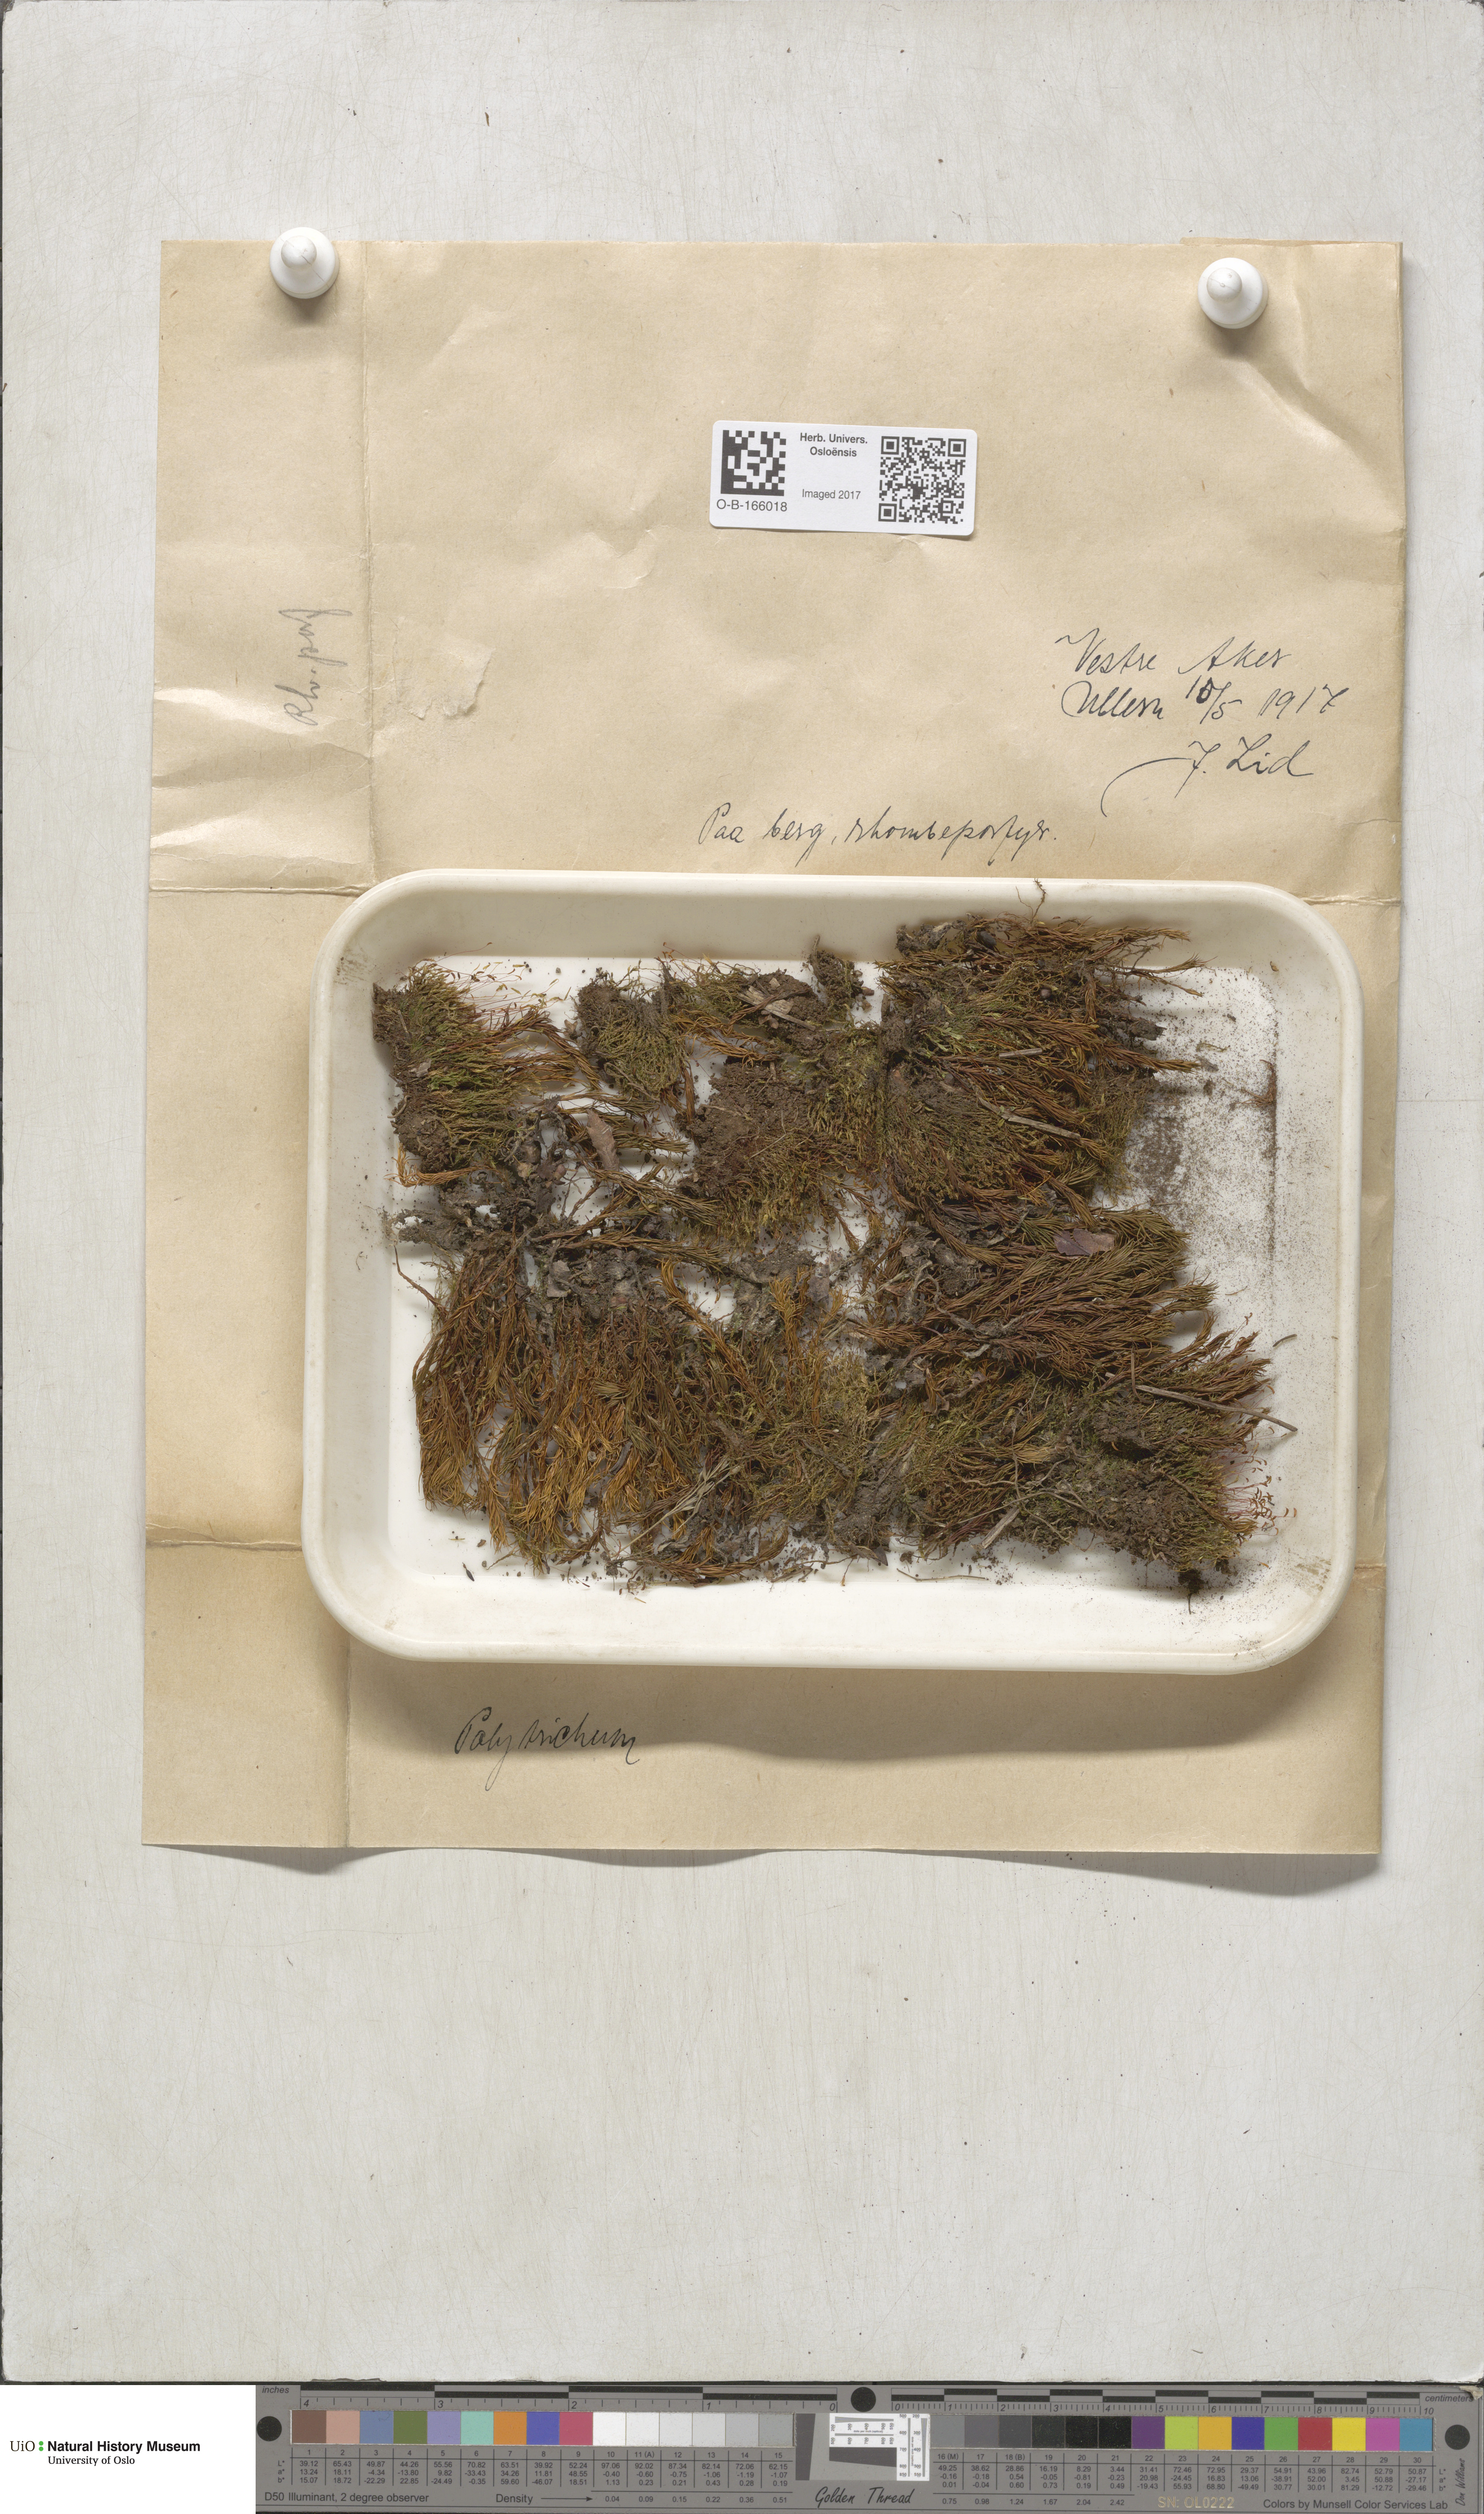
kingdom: Plantae
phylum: Bryophyta
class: Polytrichopsida
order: Polytrichales
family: Polytrichaceae
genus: Polytrichum
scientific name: Polytrichum
